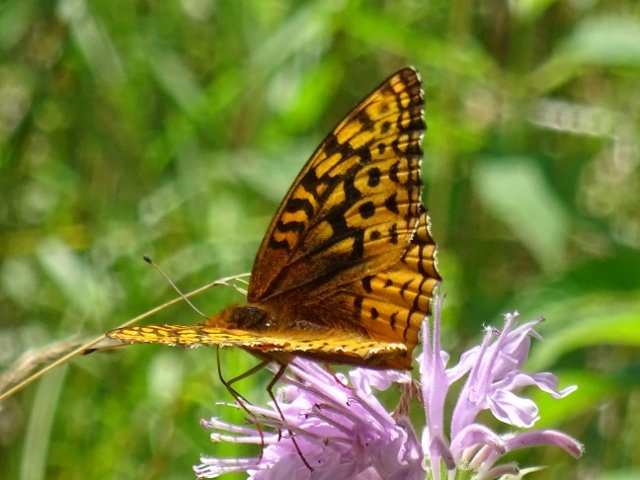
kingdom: Animalia
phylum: Arthropoda
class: Insecta
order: Lepidoptera
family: Nymphalidae
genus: Speyeria
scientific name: Speyeria cybele
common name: Great Spangled Fritillary
